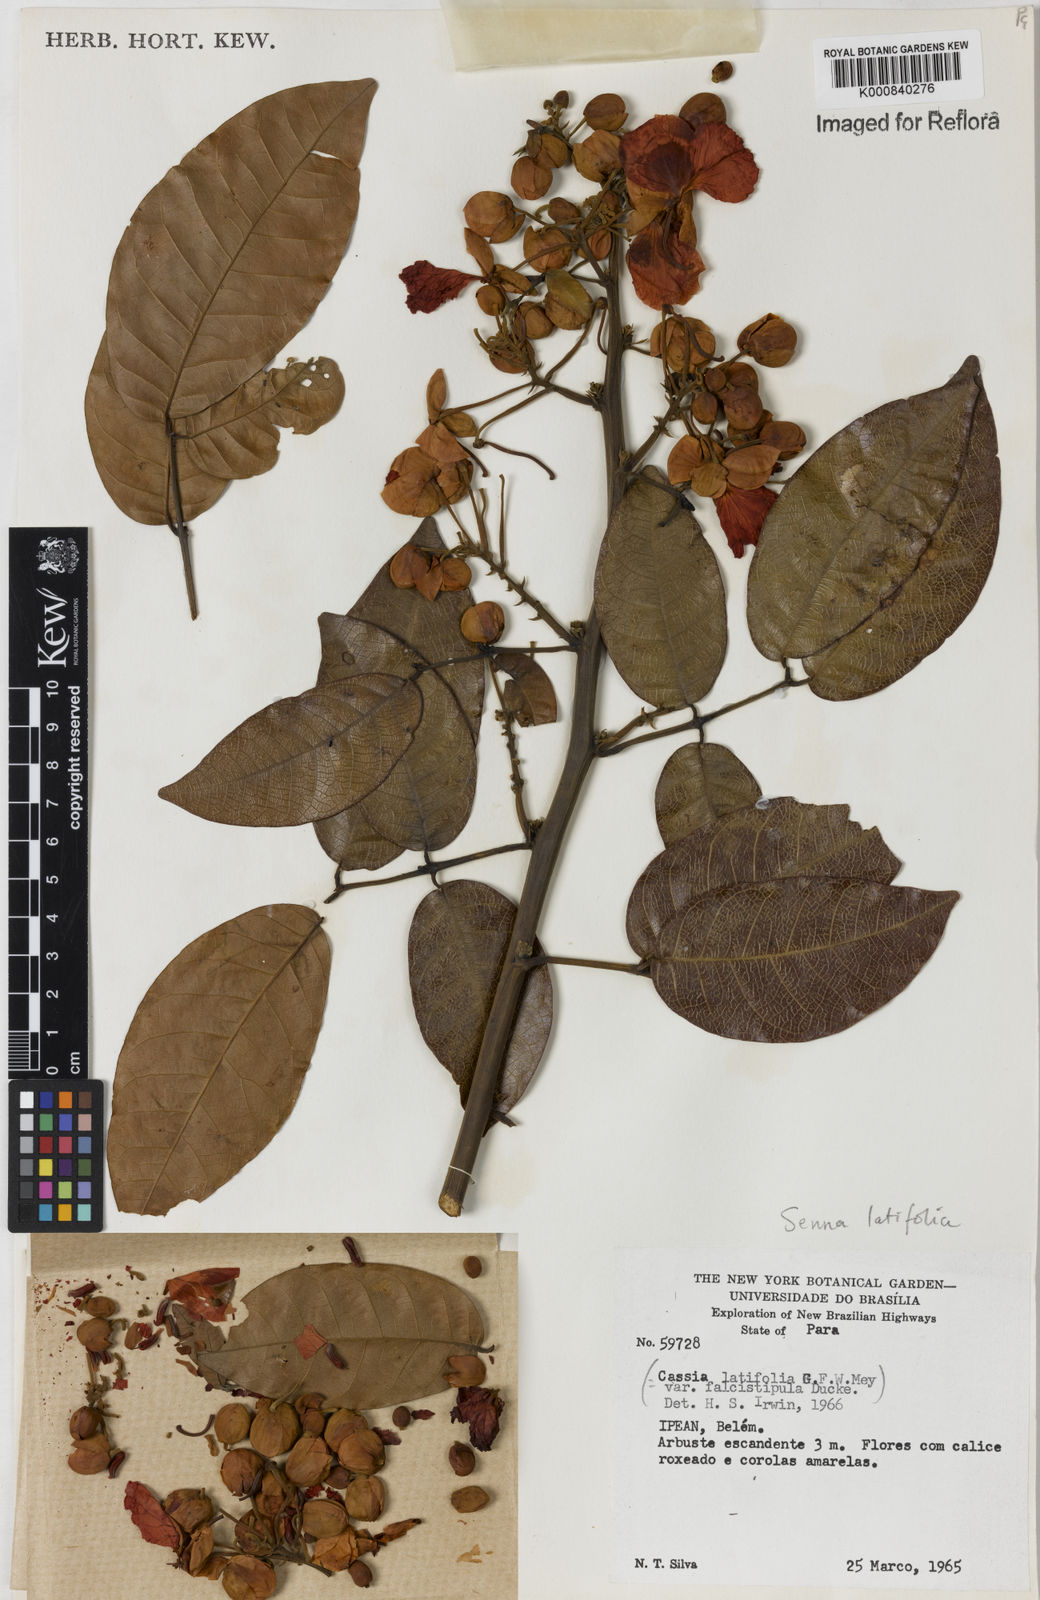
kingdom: Plantae
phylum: Tracheophyta
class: Magnoliopsida
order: Fabales
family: Fabaceae
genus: Senna
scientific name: Senna latifolia
